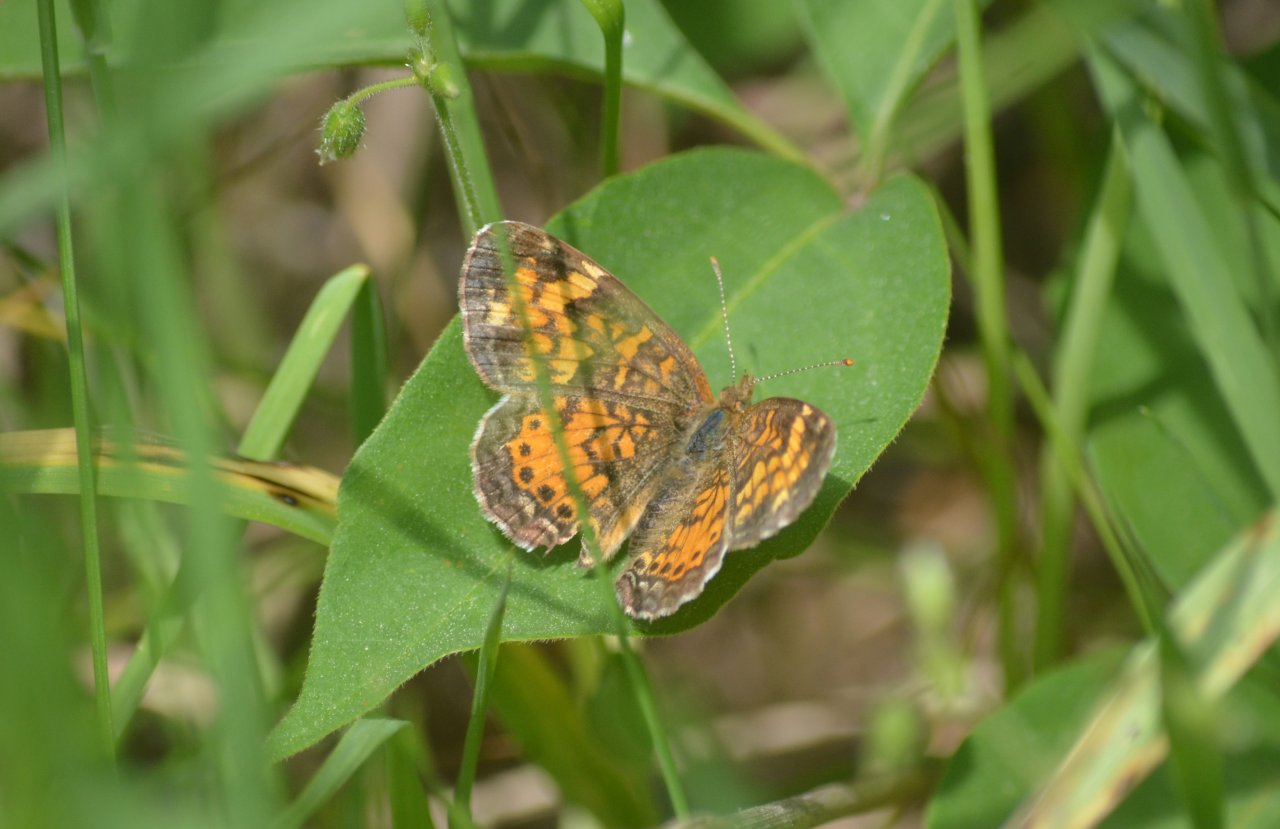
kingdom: Animalia
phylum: Arthropoda
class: Insecta
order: Lepidoptera
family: Nymphalidae
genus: Phyciodes
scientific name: Phyciodes tharos
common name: Northern Crescent
